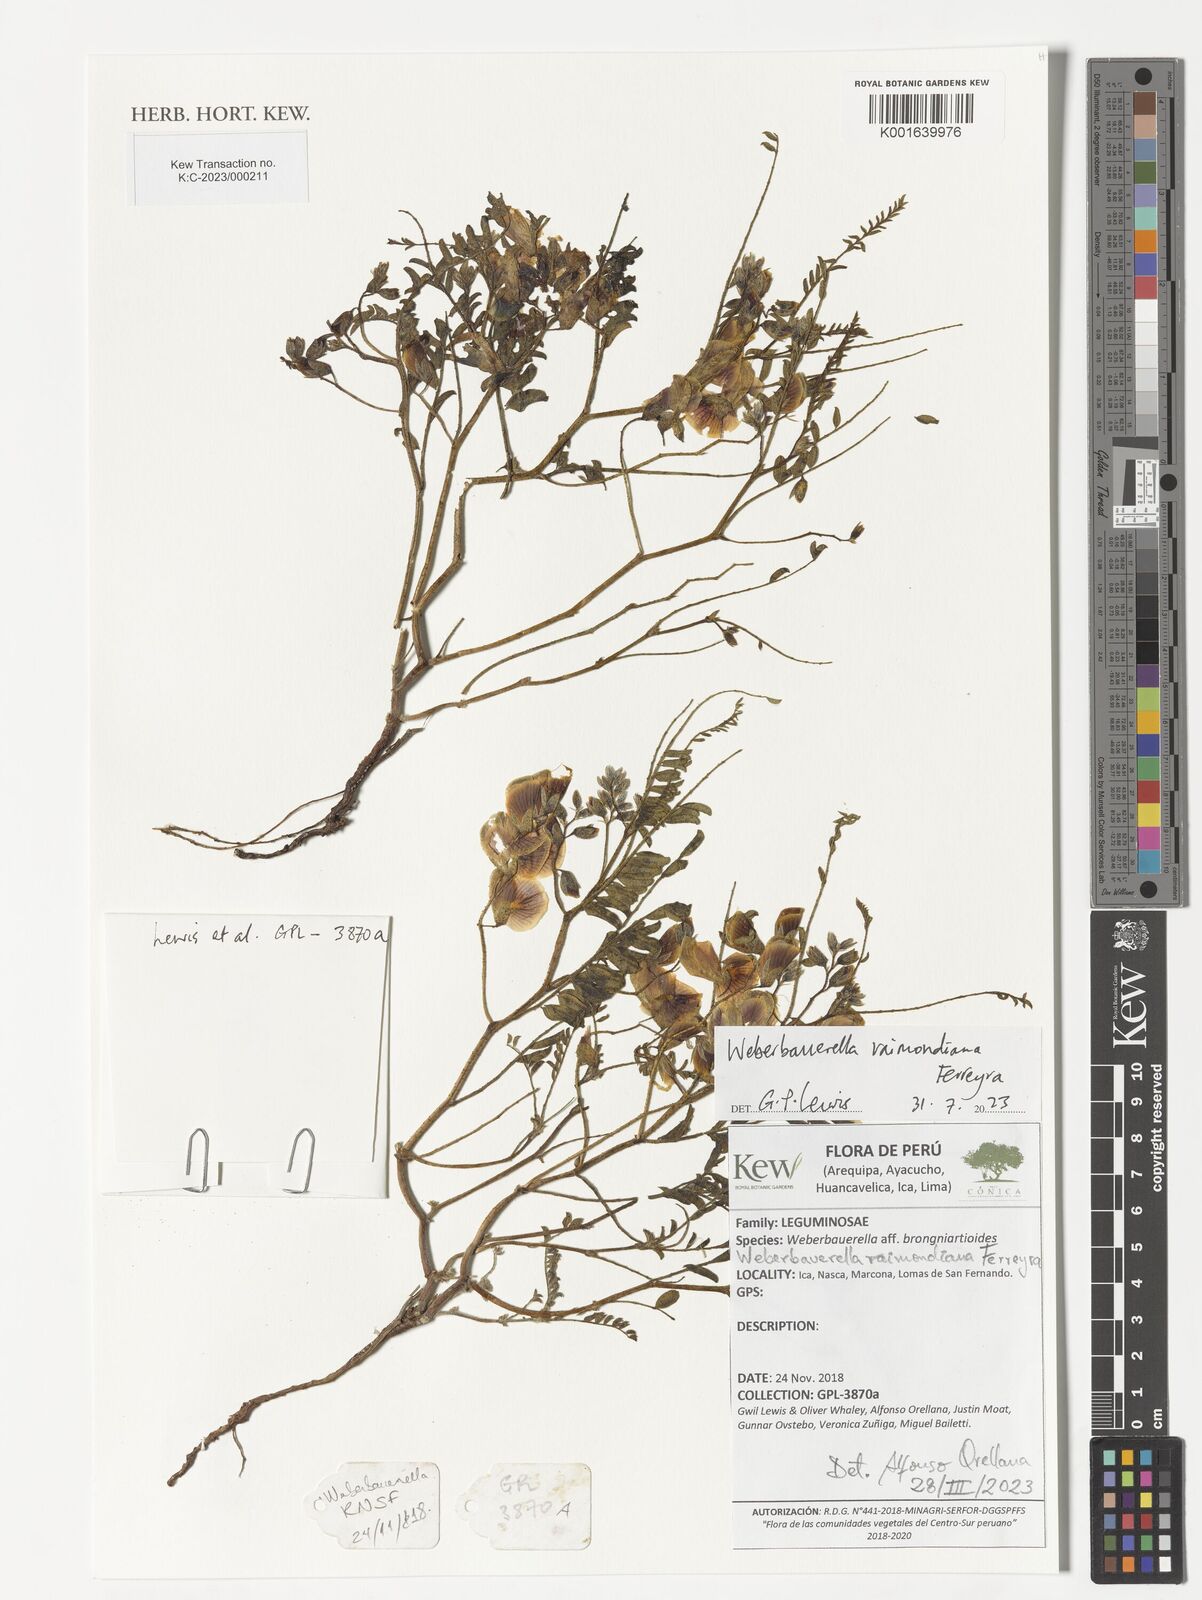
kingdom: Plantae
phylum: Tracheophyta
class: Magnoliopsida
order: Fabales
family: Fabaceae
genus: Weberbauerella
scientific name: Weberbauerella raimondiana
